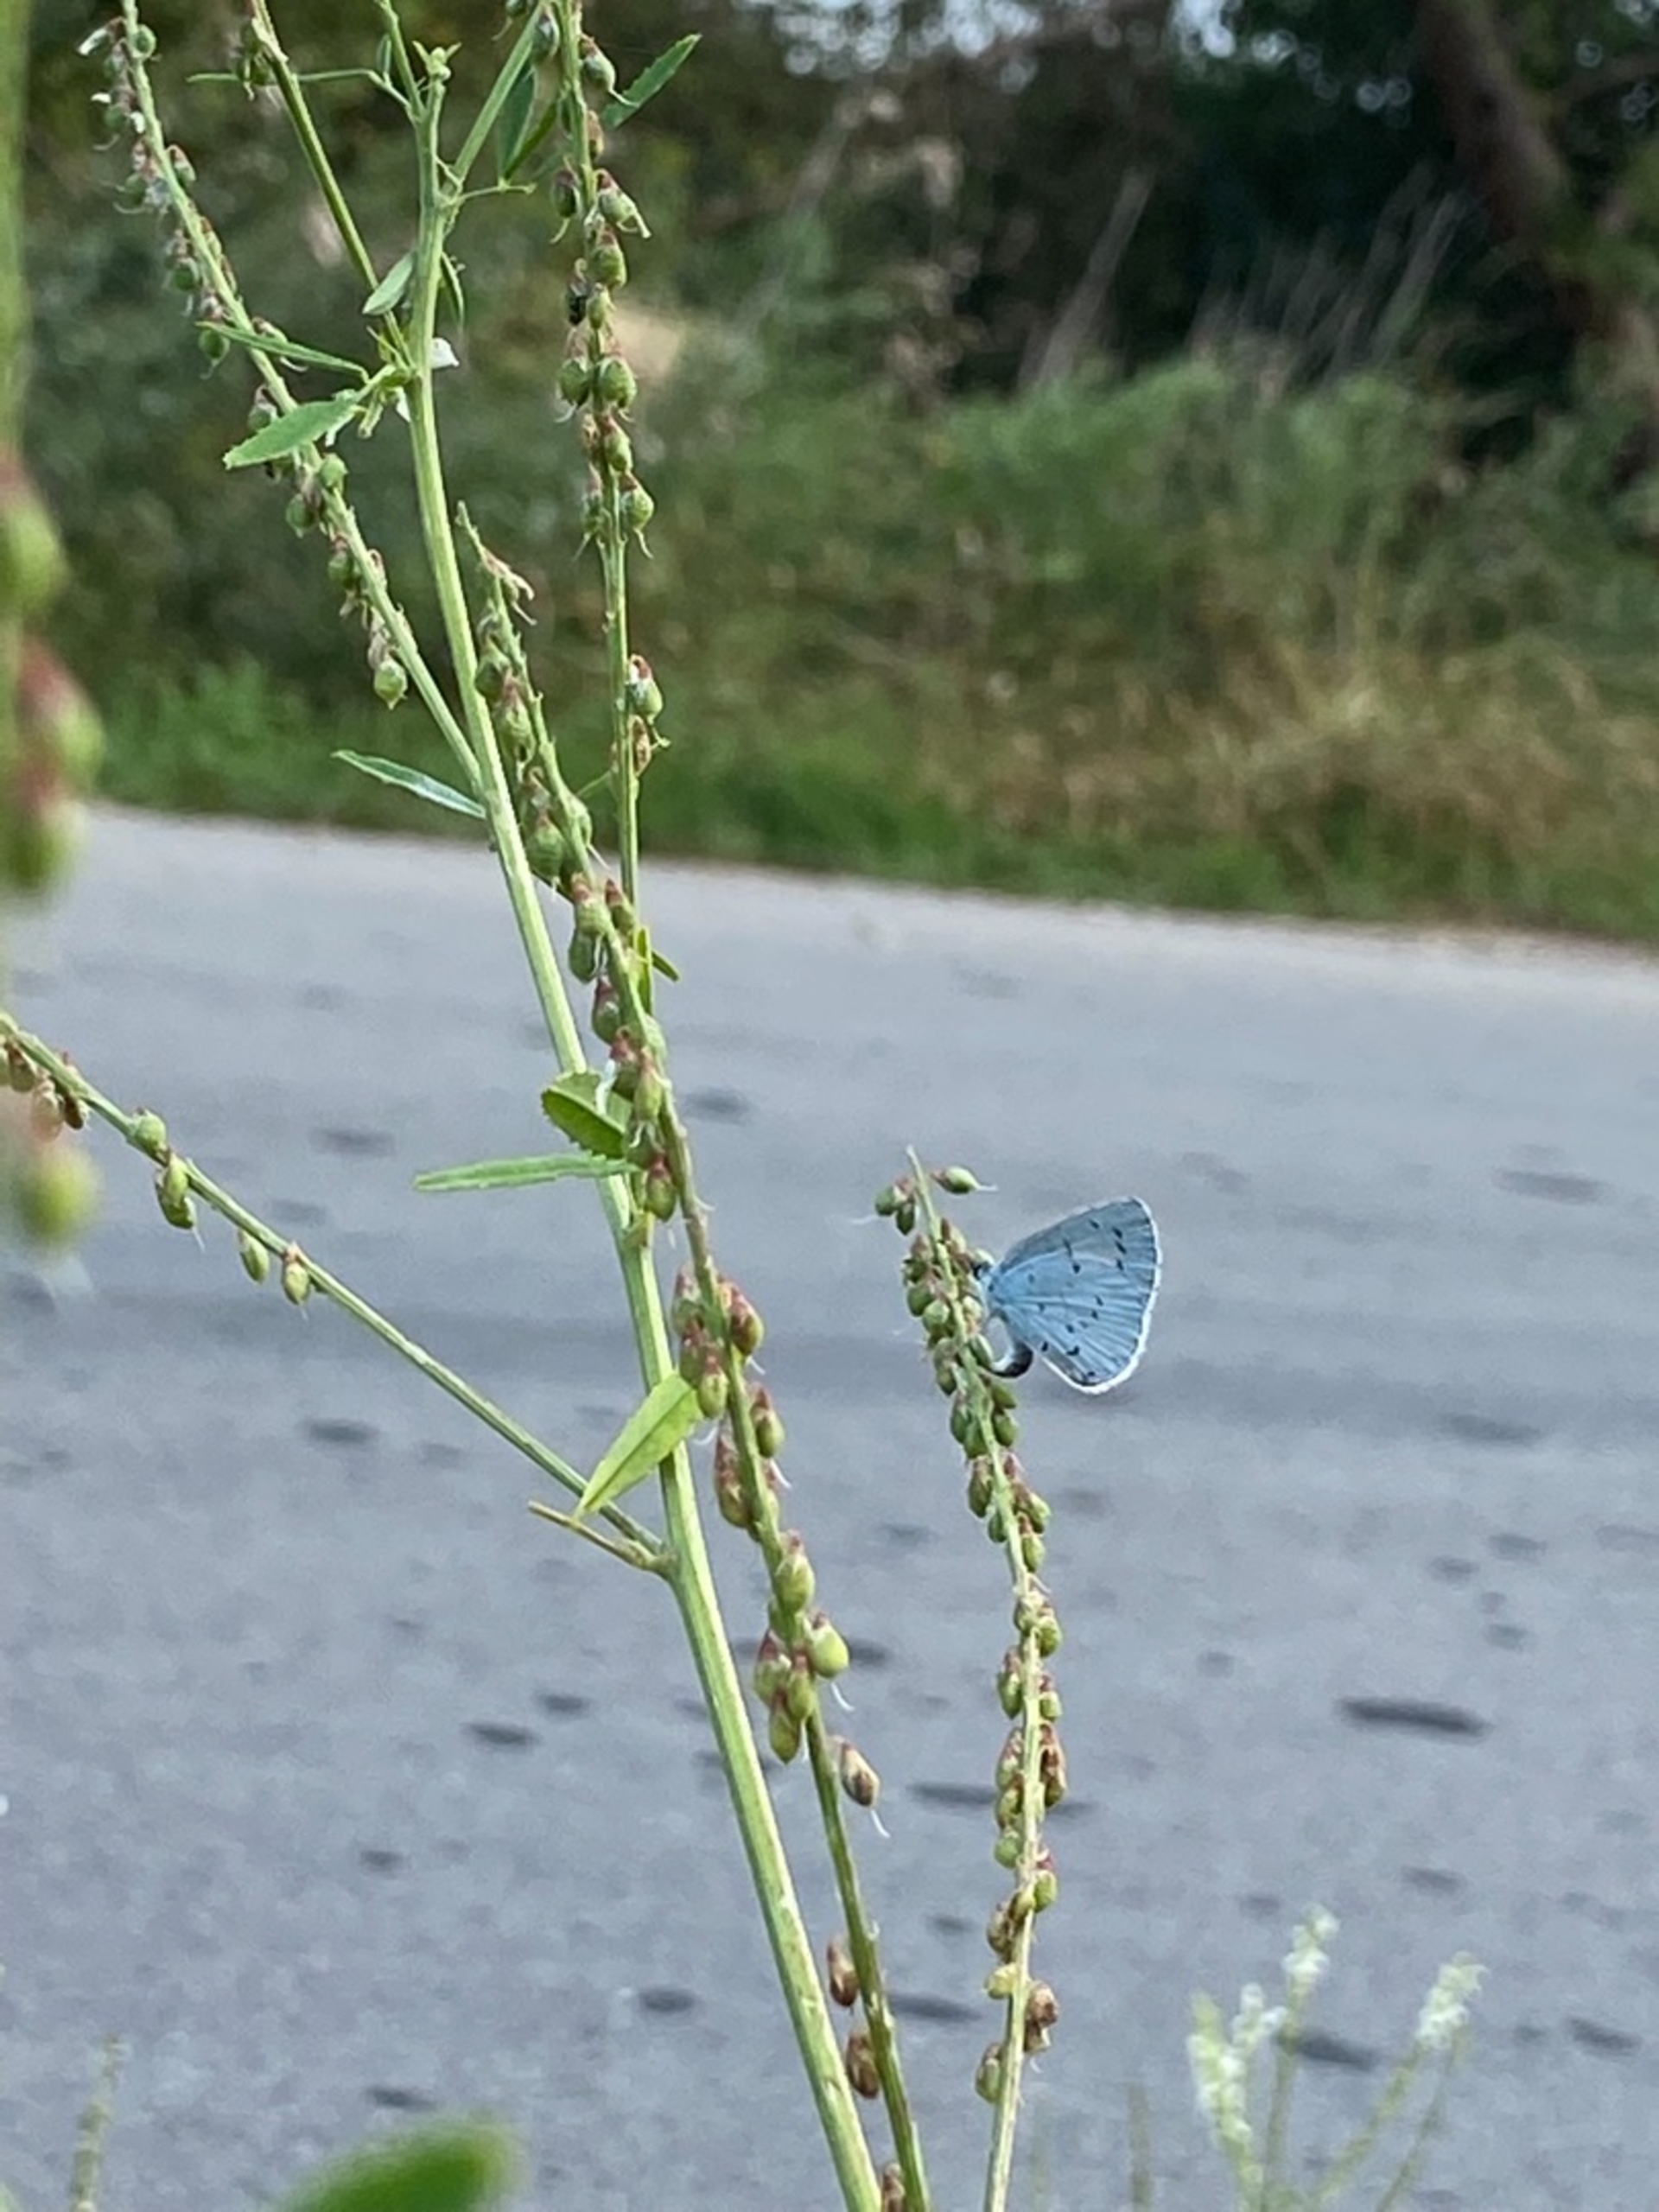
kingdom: Animalia
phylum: Arthropoda
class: Insecta
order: Lepidoptera
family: Lycaenidae
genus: Celastrina
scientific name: Celastrina argiolus
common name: Skovblåfugl
